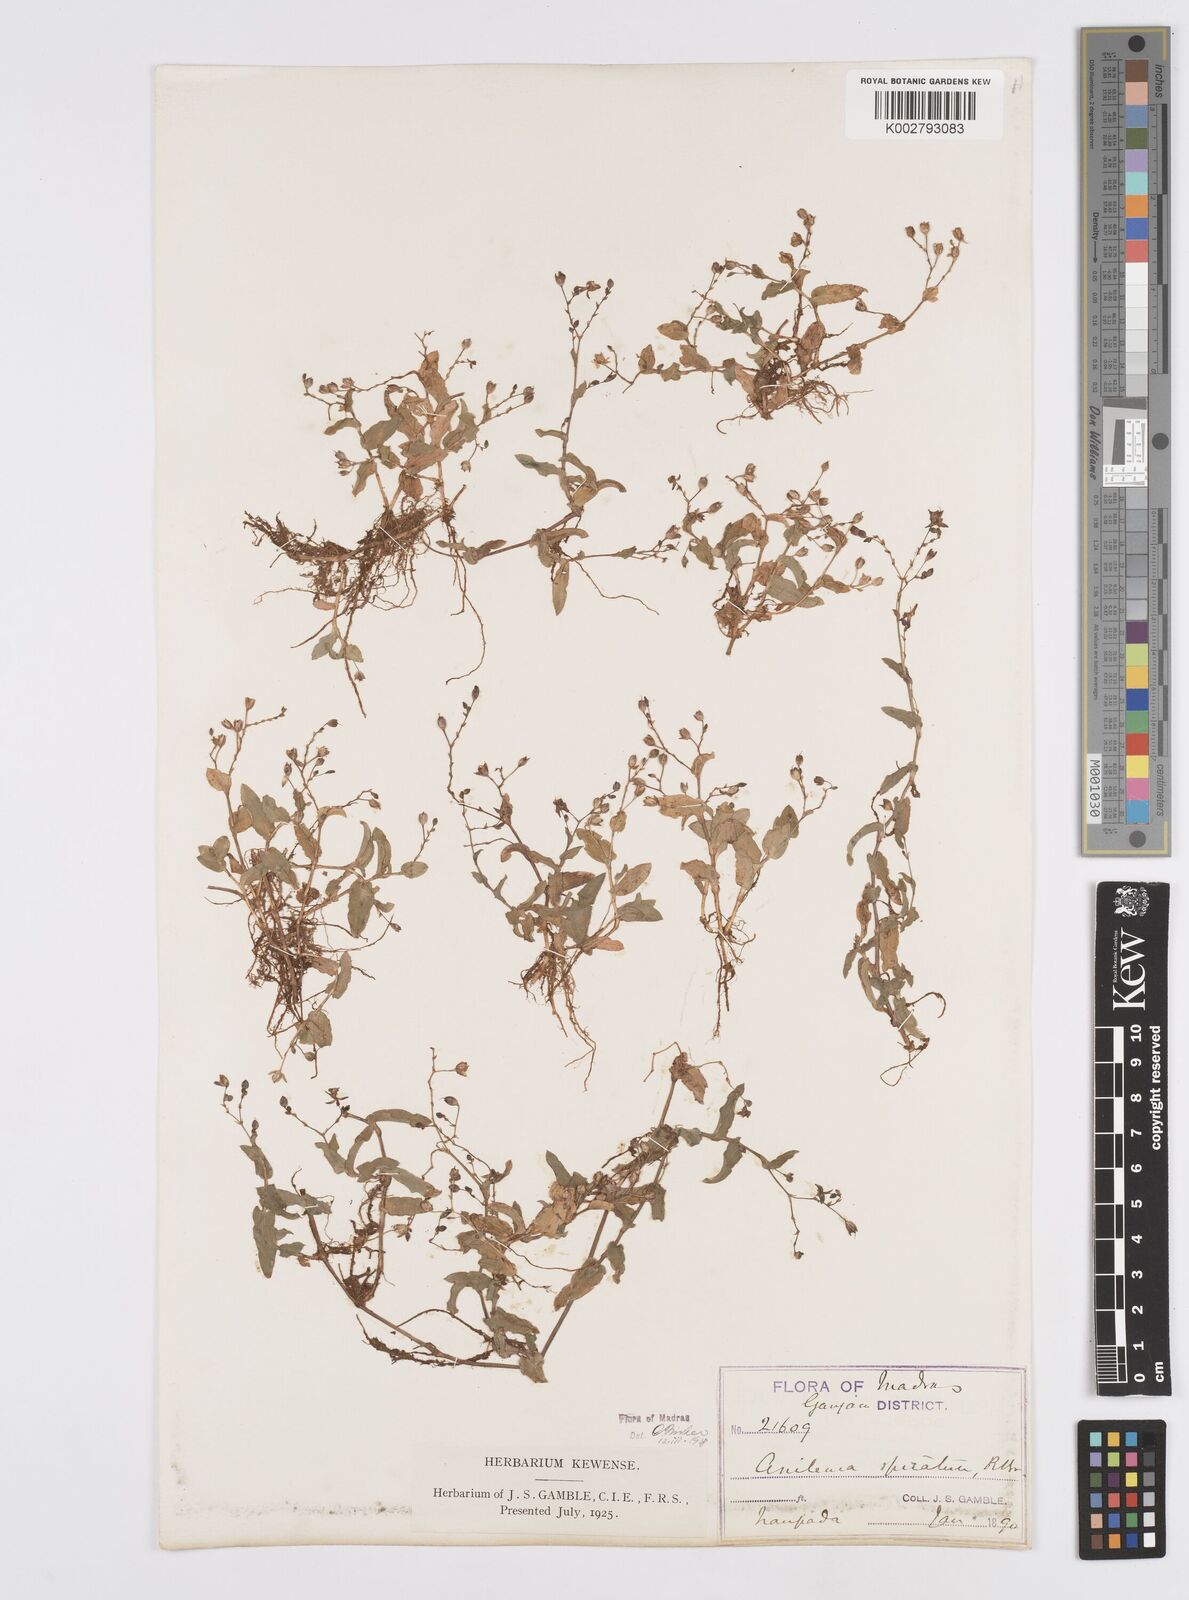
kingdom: Plantae
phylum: Tracheophyta
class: Liliopsida
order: Commelinales
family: Commelinaceae
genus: Murdannia
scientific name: Murdannia spirata
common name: Asiatic dewflower
